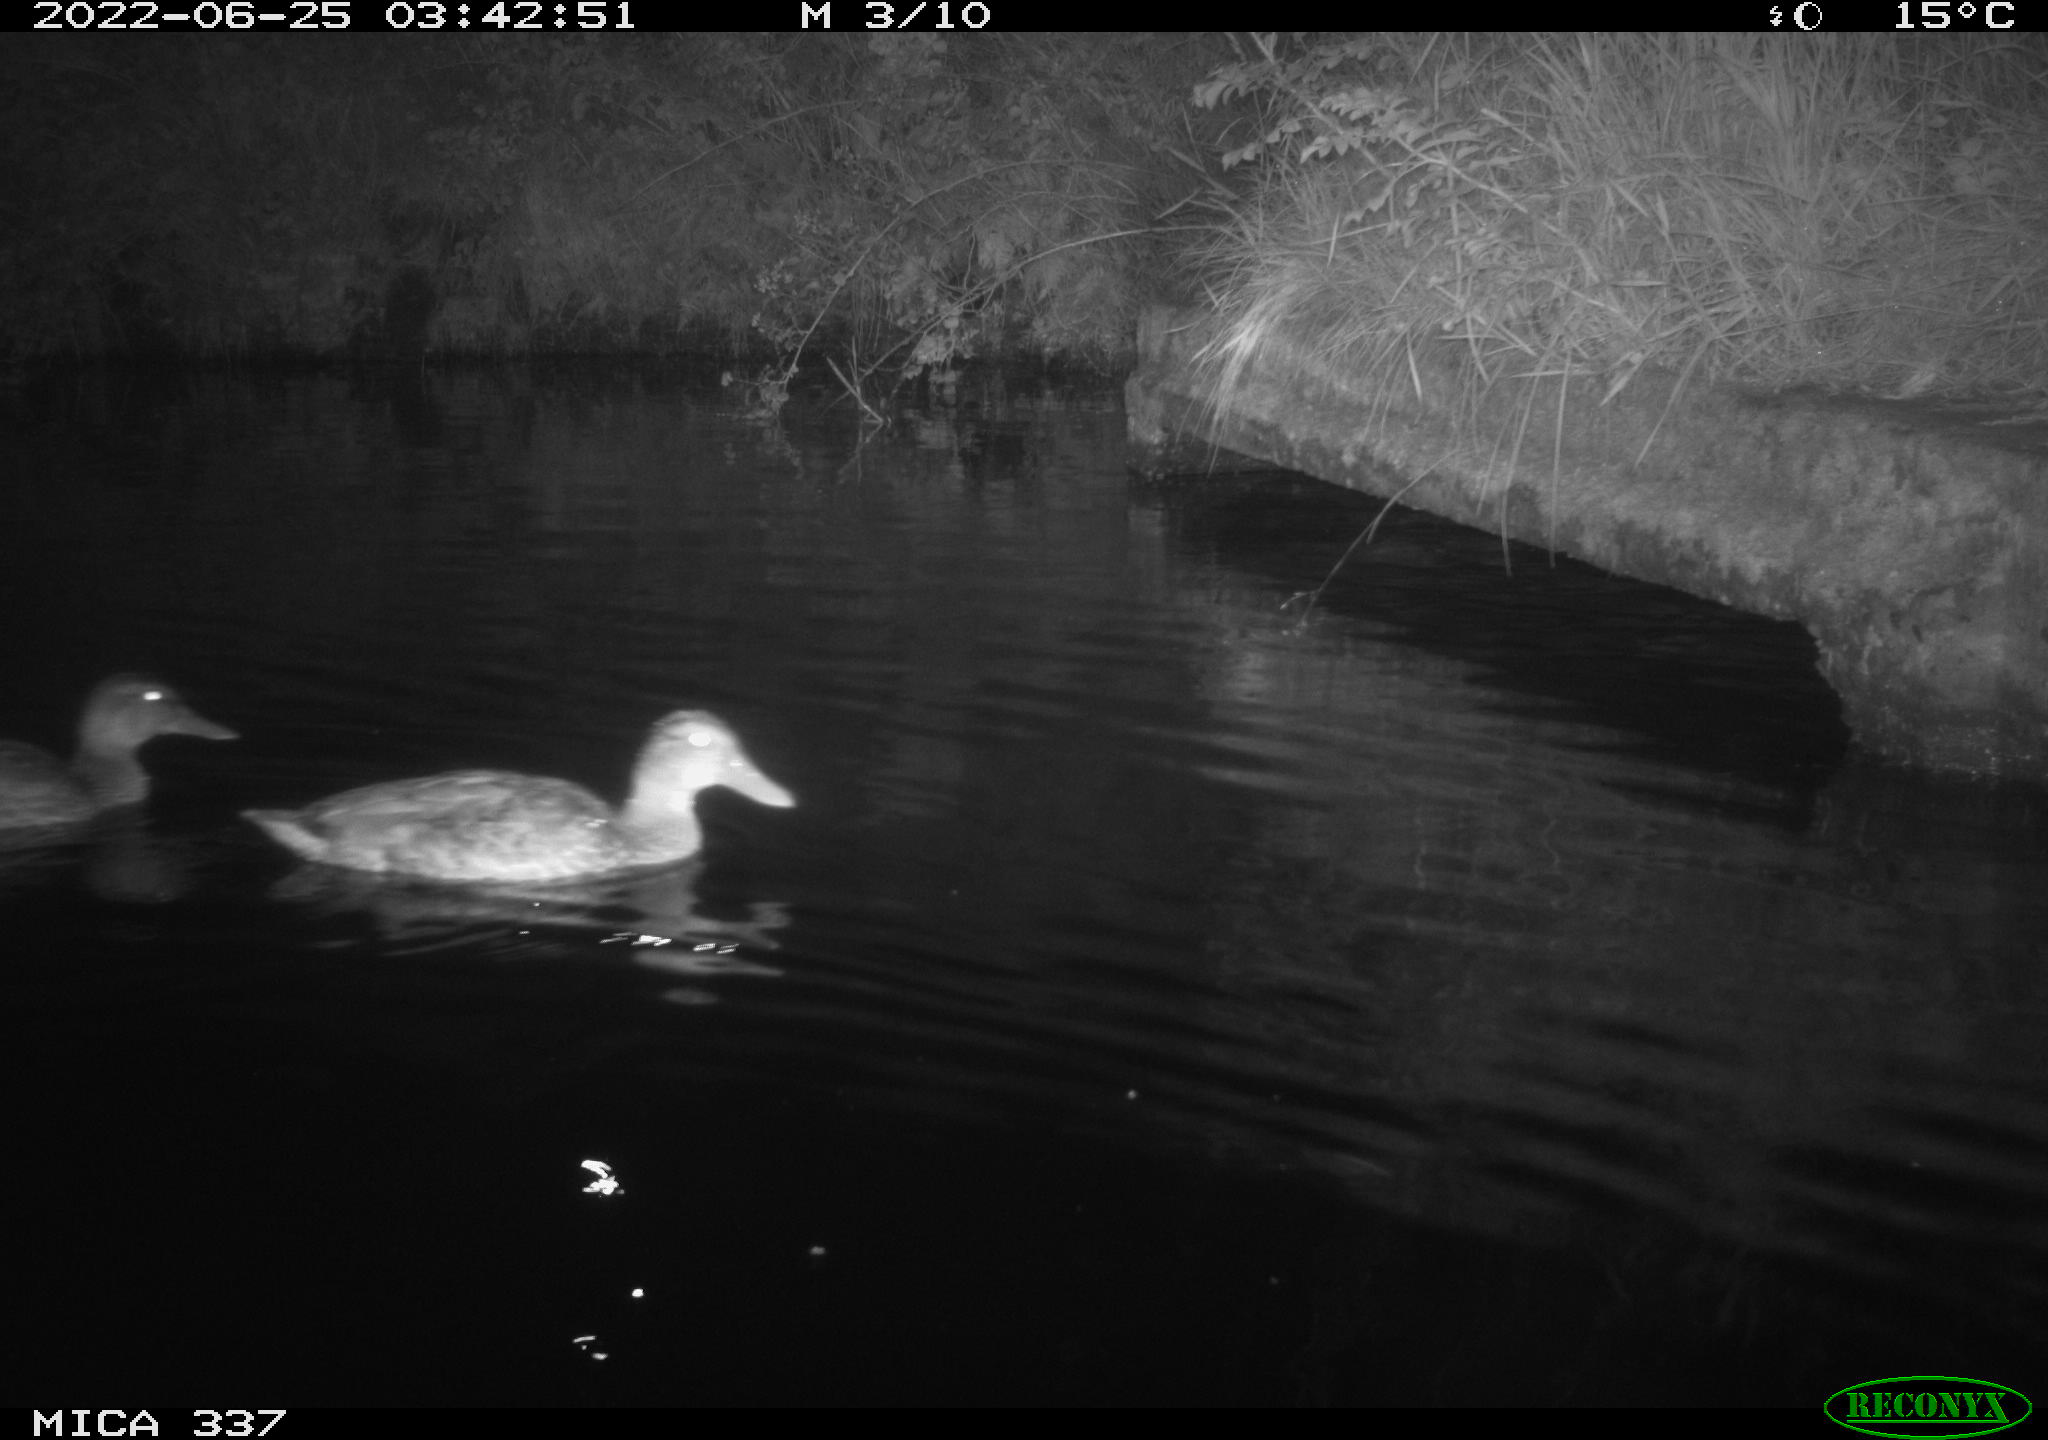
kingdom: Animalia
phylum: Chordata
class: Aves
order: Anseriformes
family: Anatidae
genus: Anas
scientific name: Anas platyrhynchos
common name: Mallard
